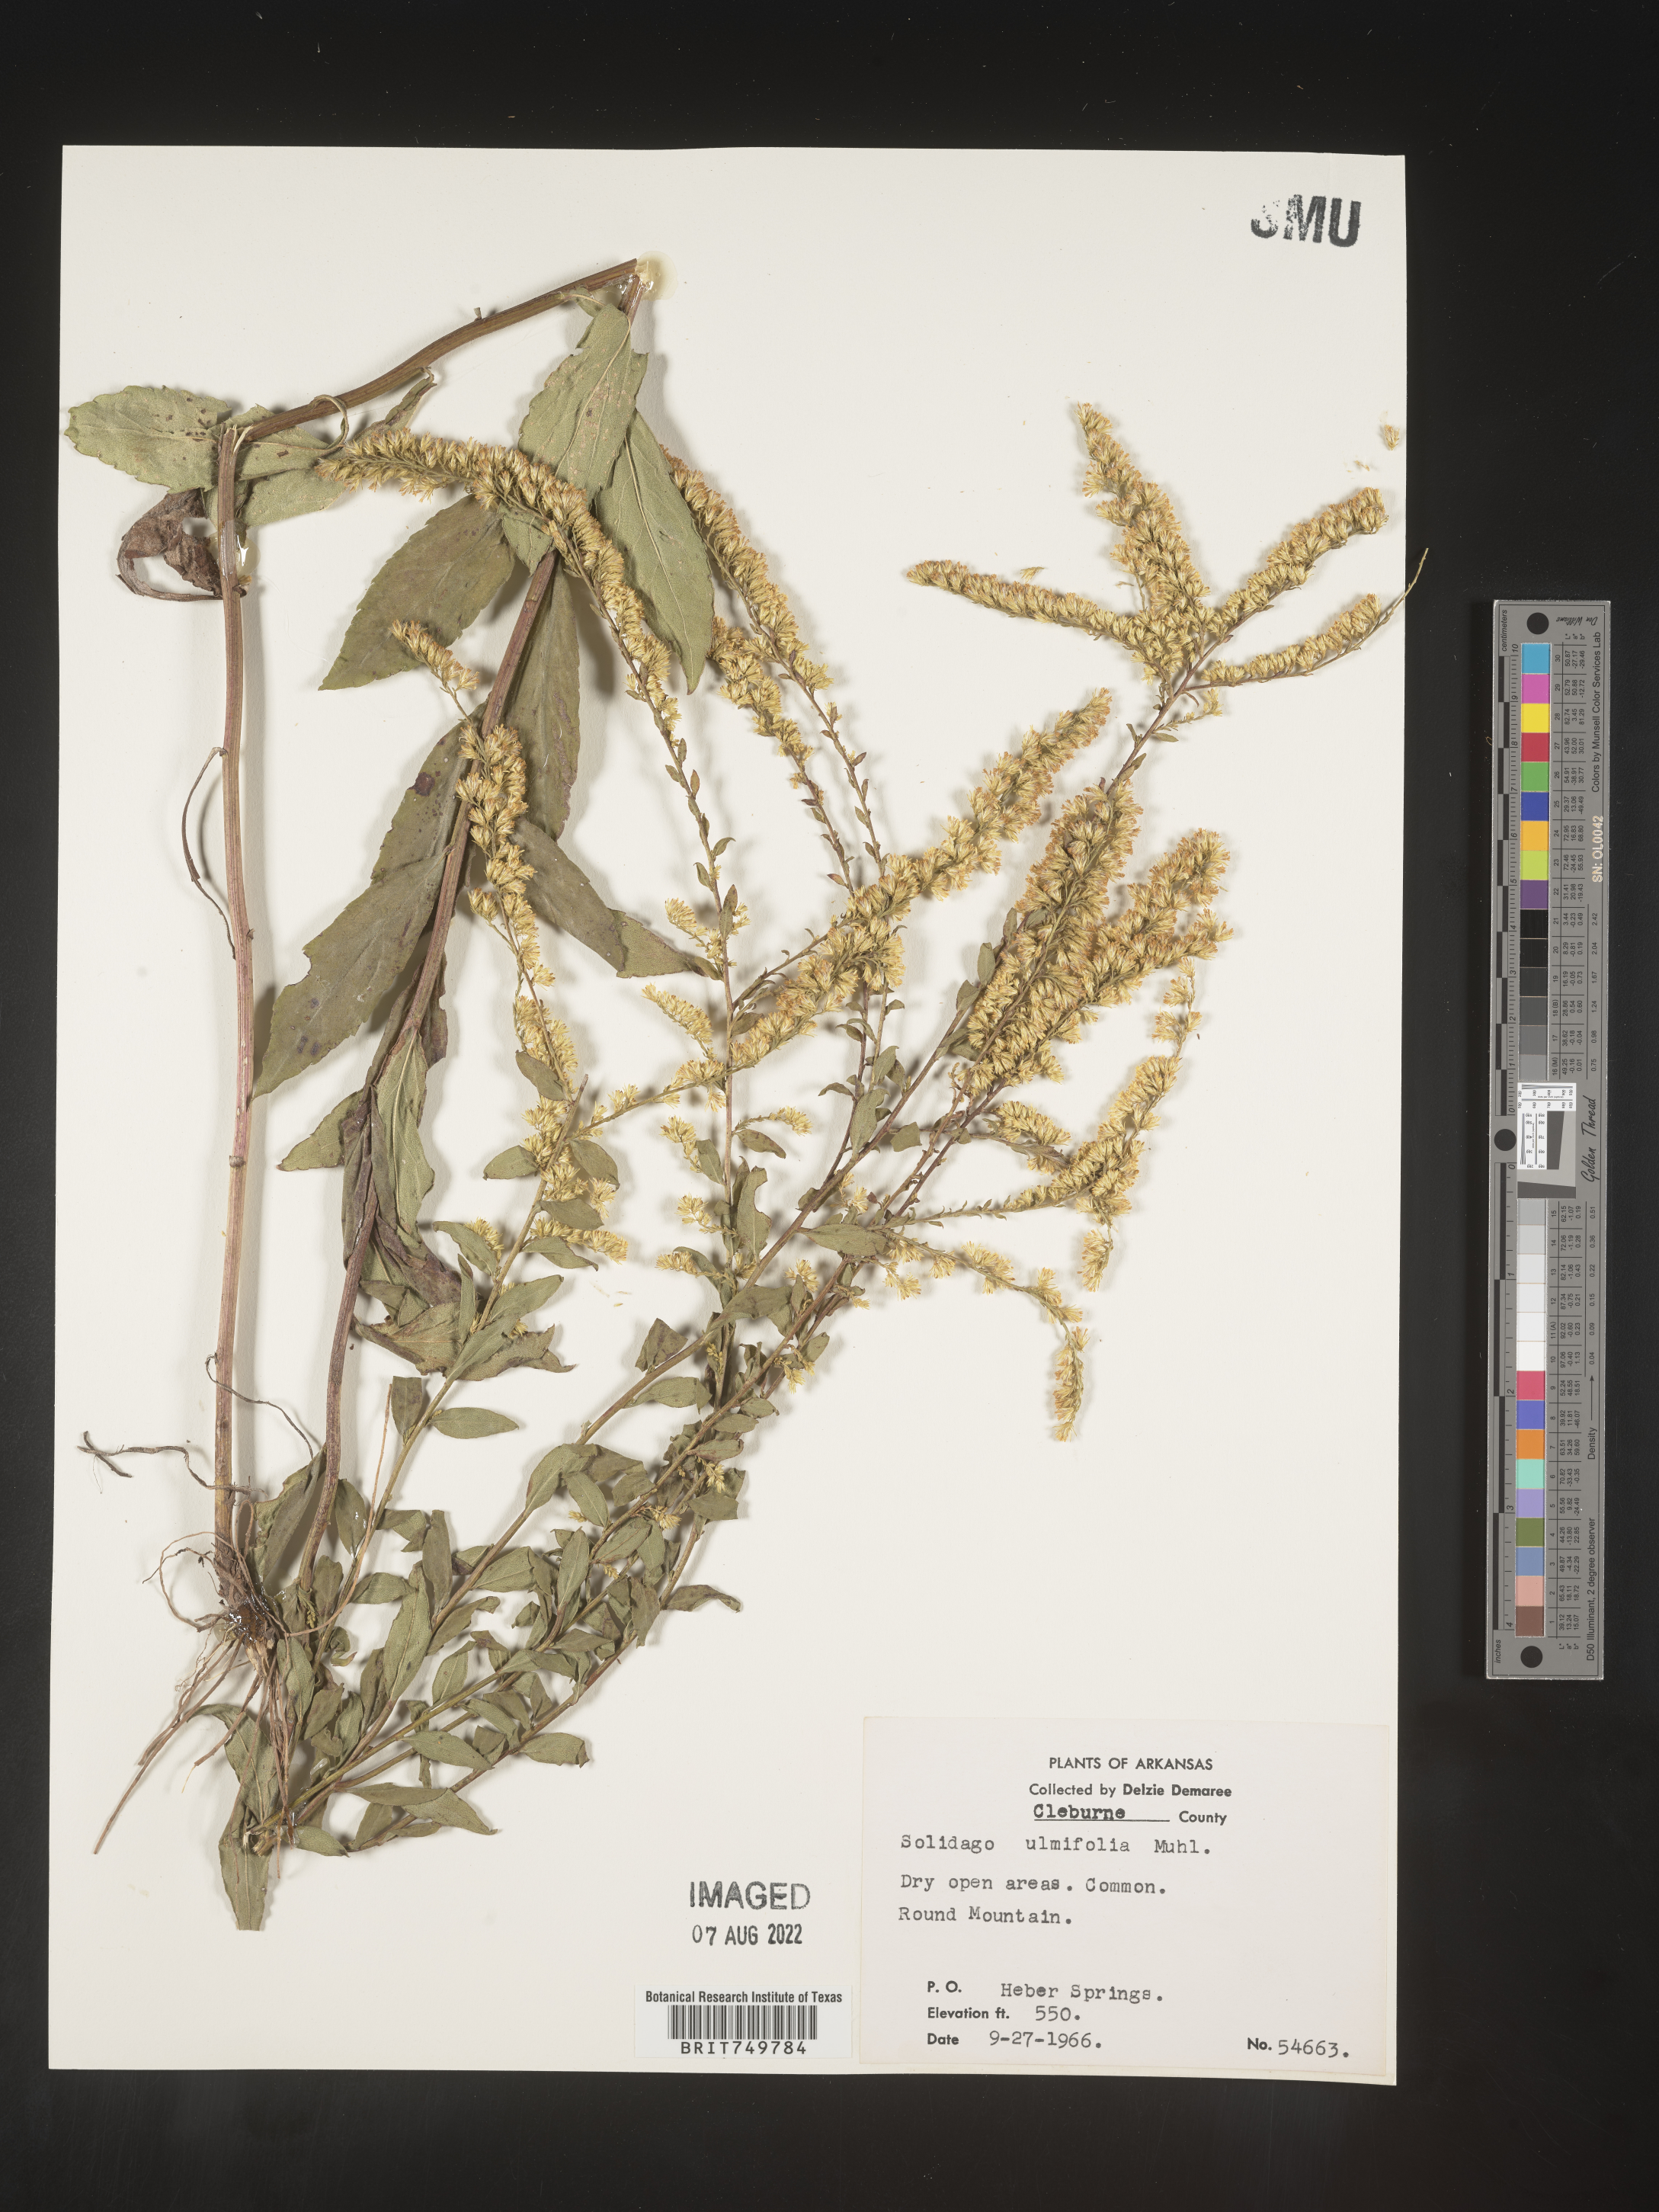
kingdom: Plantae
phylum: Tracheophyta
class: Magnoliopsida
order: Asterales
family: Asteraceae
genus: Solidago
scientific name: Solidago ulmifolia
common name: Elm-leaf goldenrod
